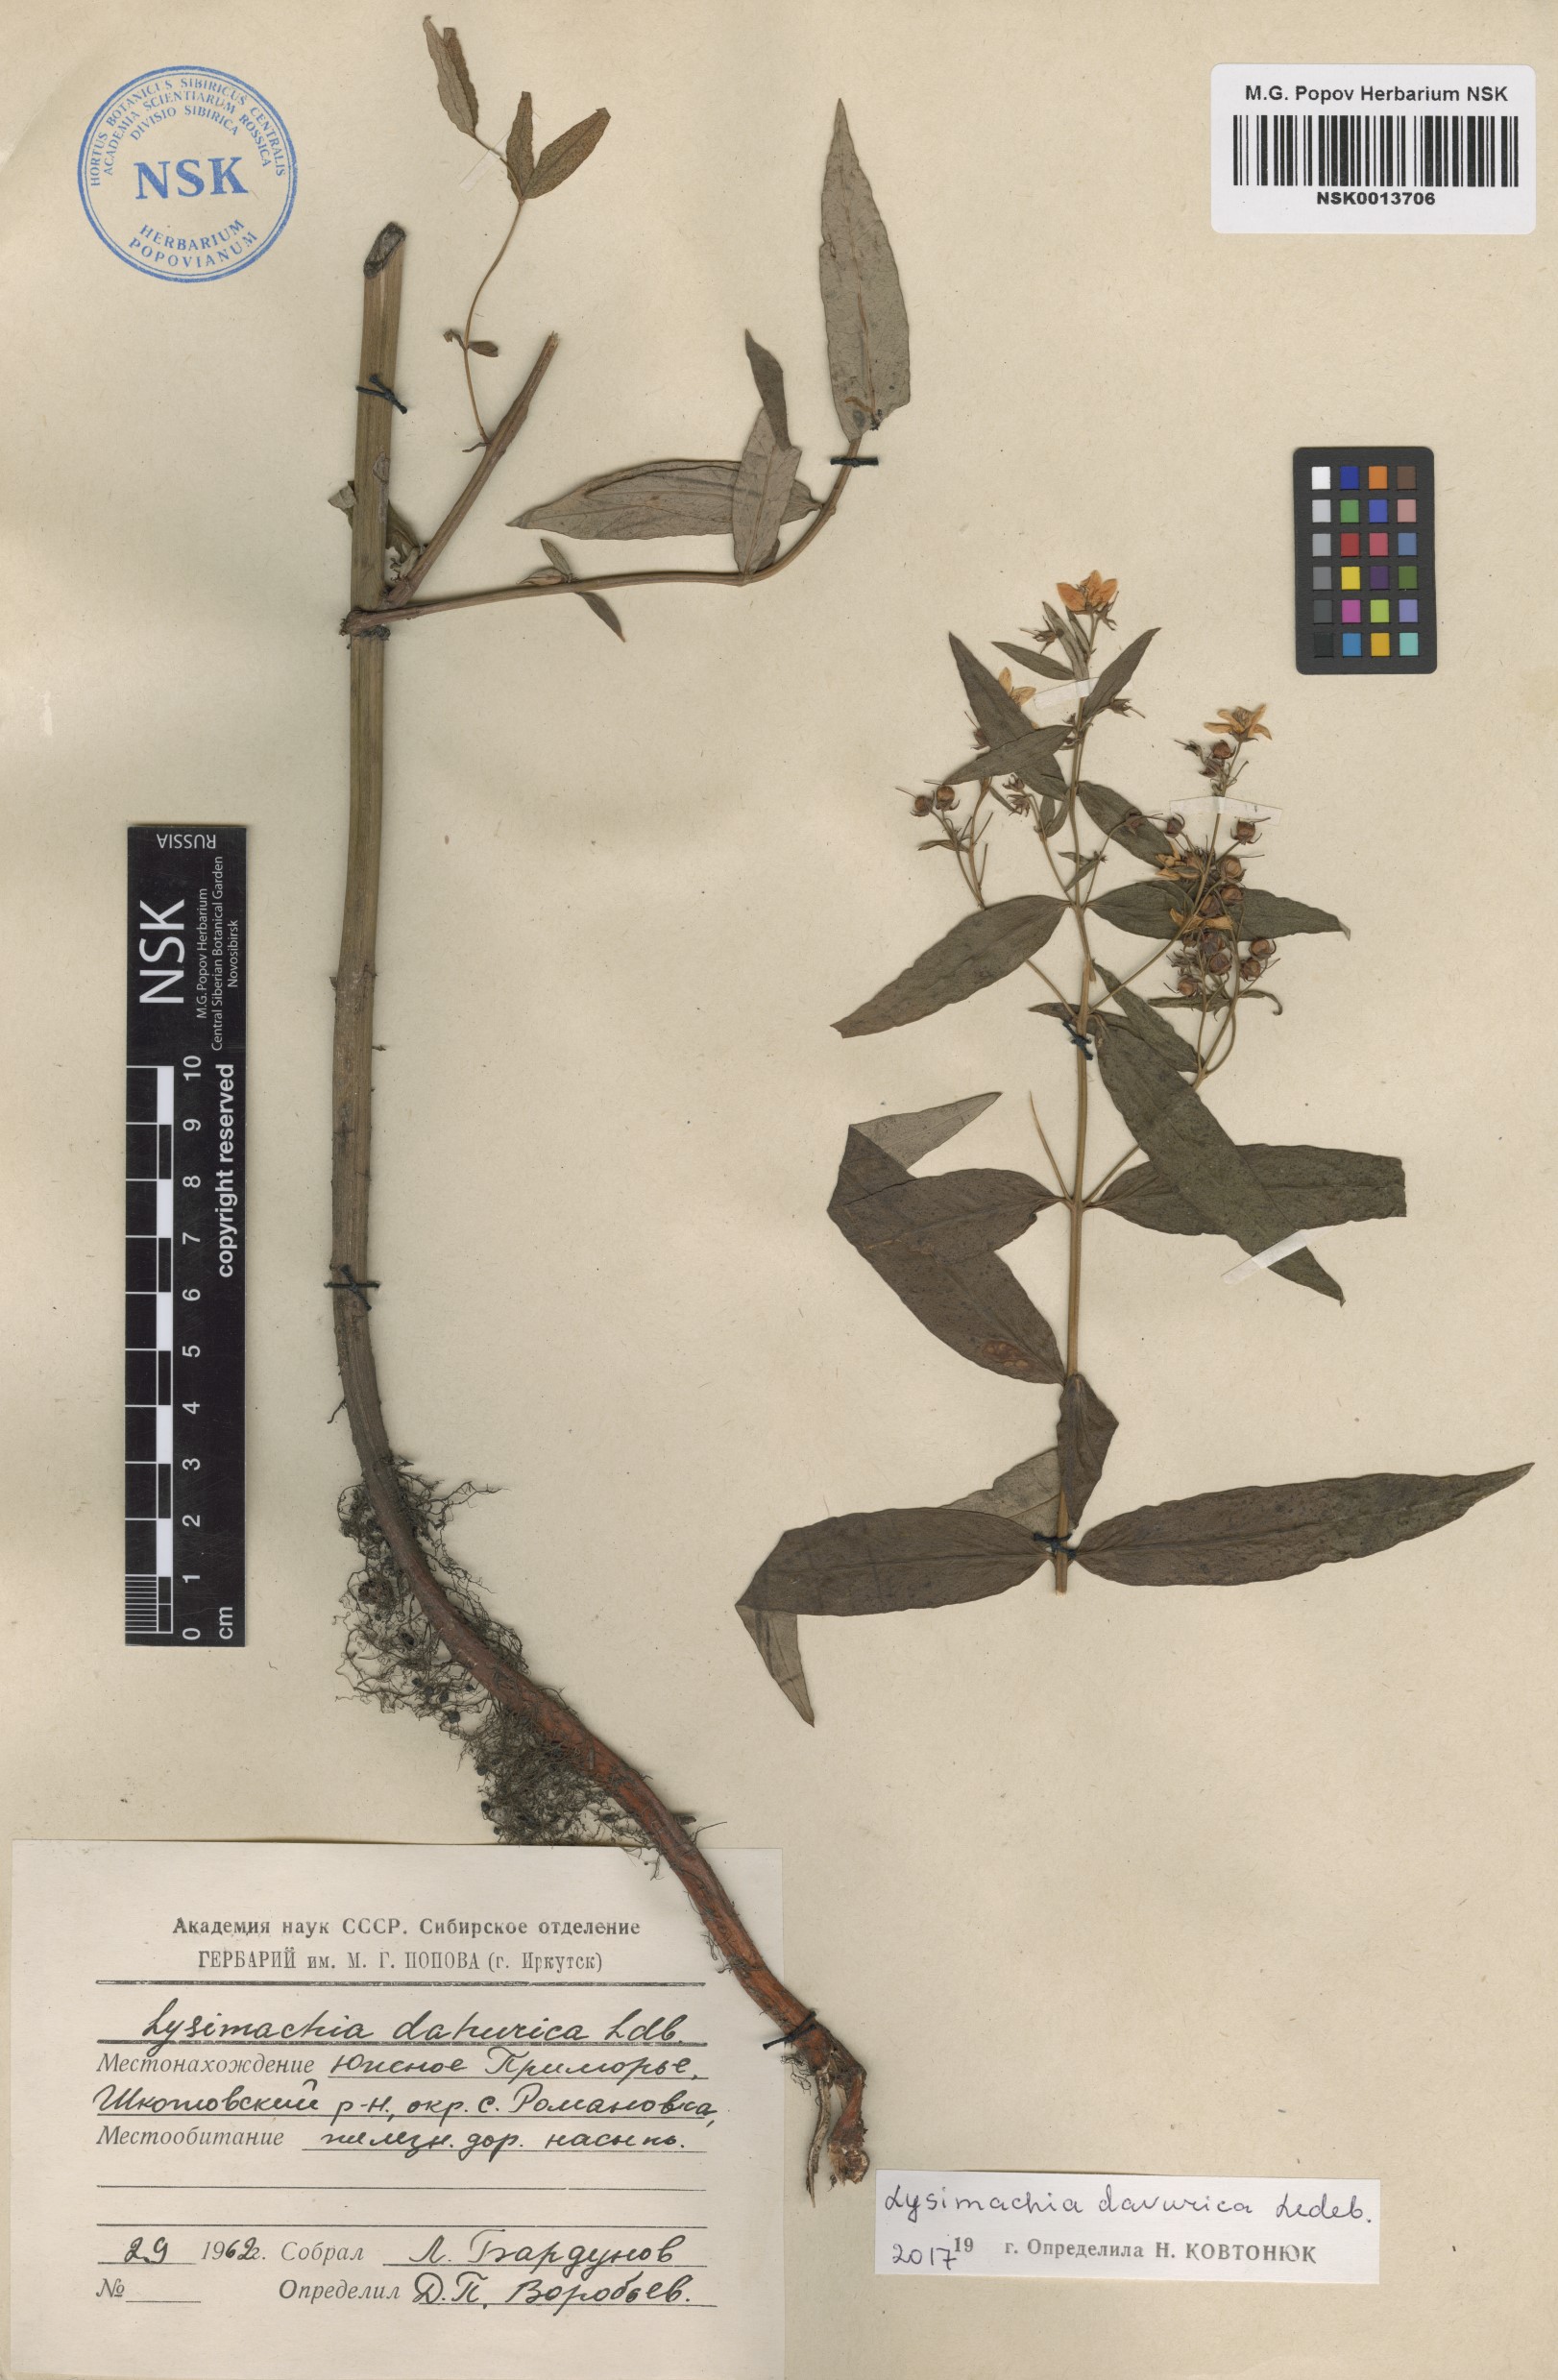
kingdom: Plantae
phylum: Tracheophyta
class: Magnoliopsida
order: Ericales
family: Primulaceae
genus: Lysimachia
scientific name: Lysimachia davurica
